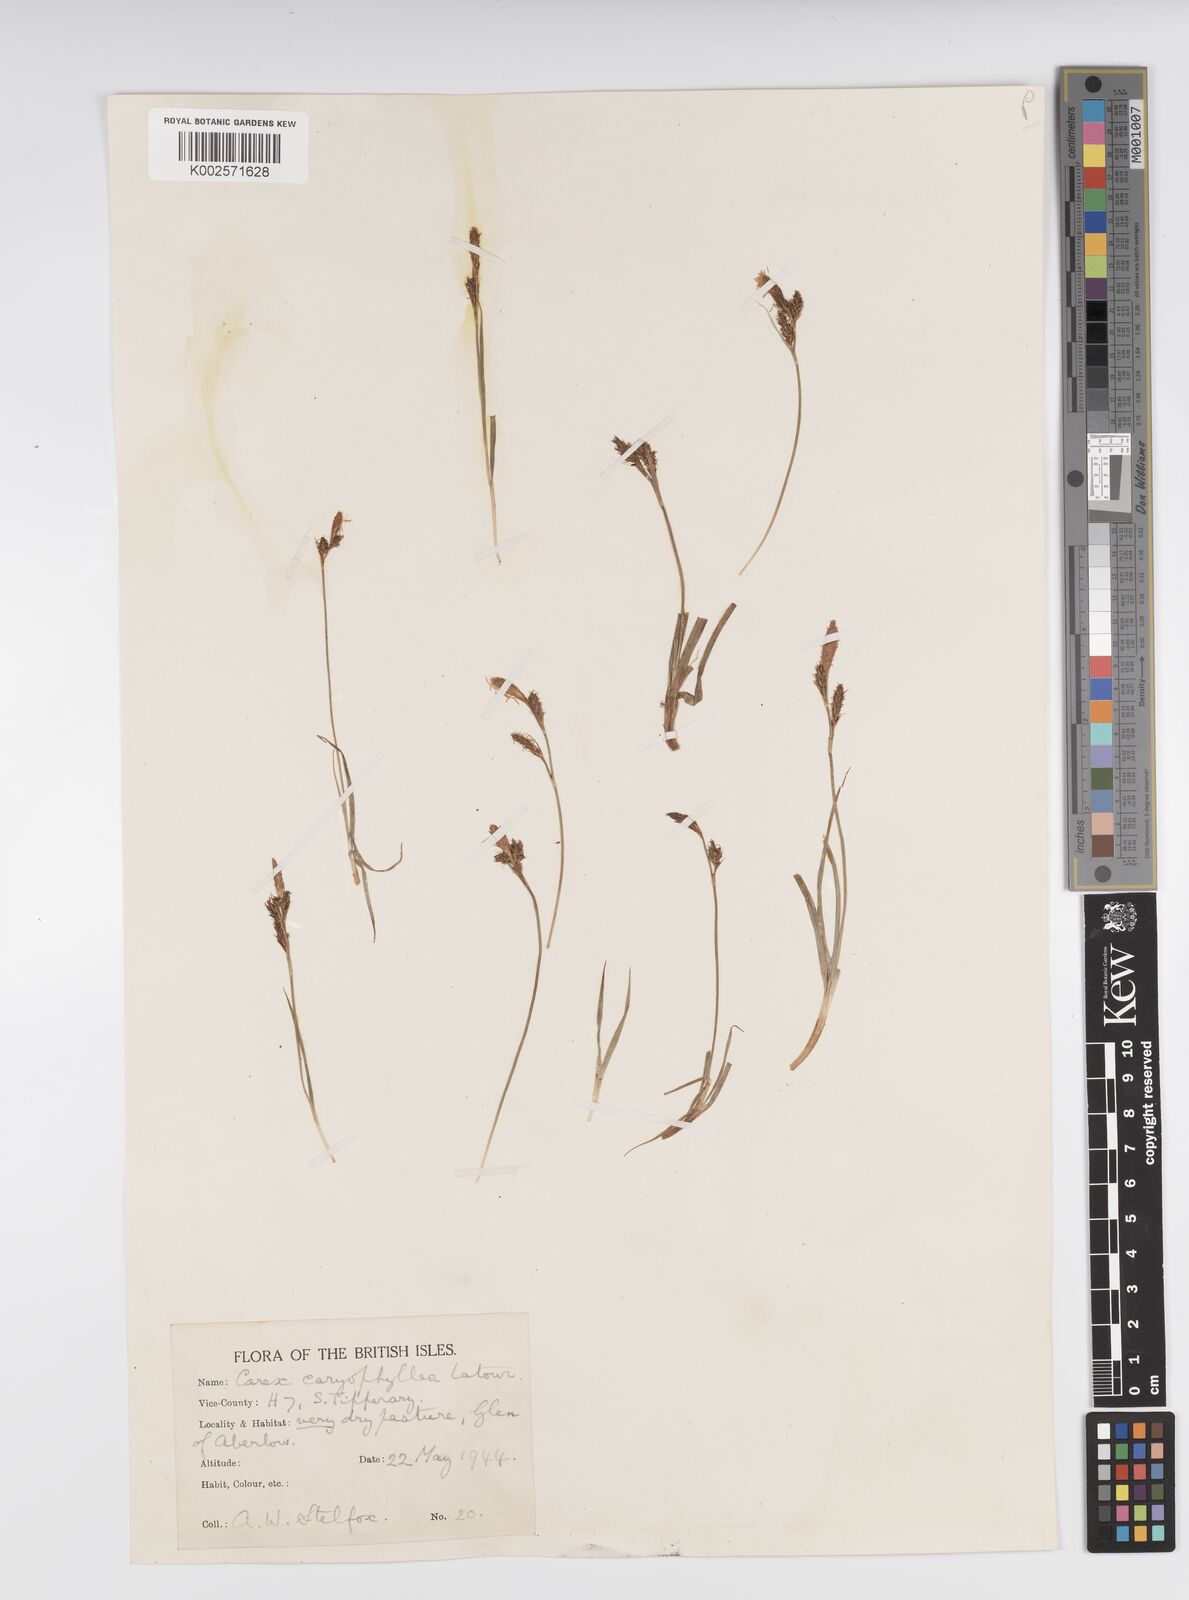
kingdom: Plantae
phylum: Tracheophyta
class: Liliopsida
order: Poales
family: Cyperaceae
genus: Carex
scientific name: Carex caryophyllea
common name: Spring sedge
